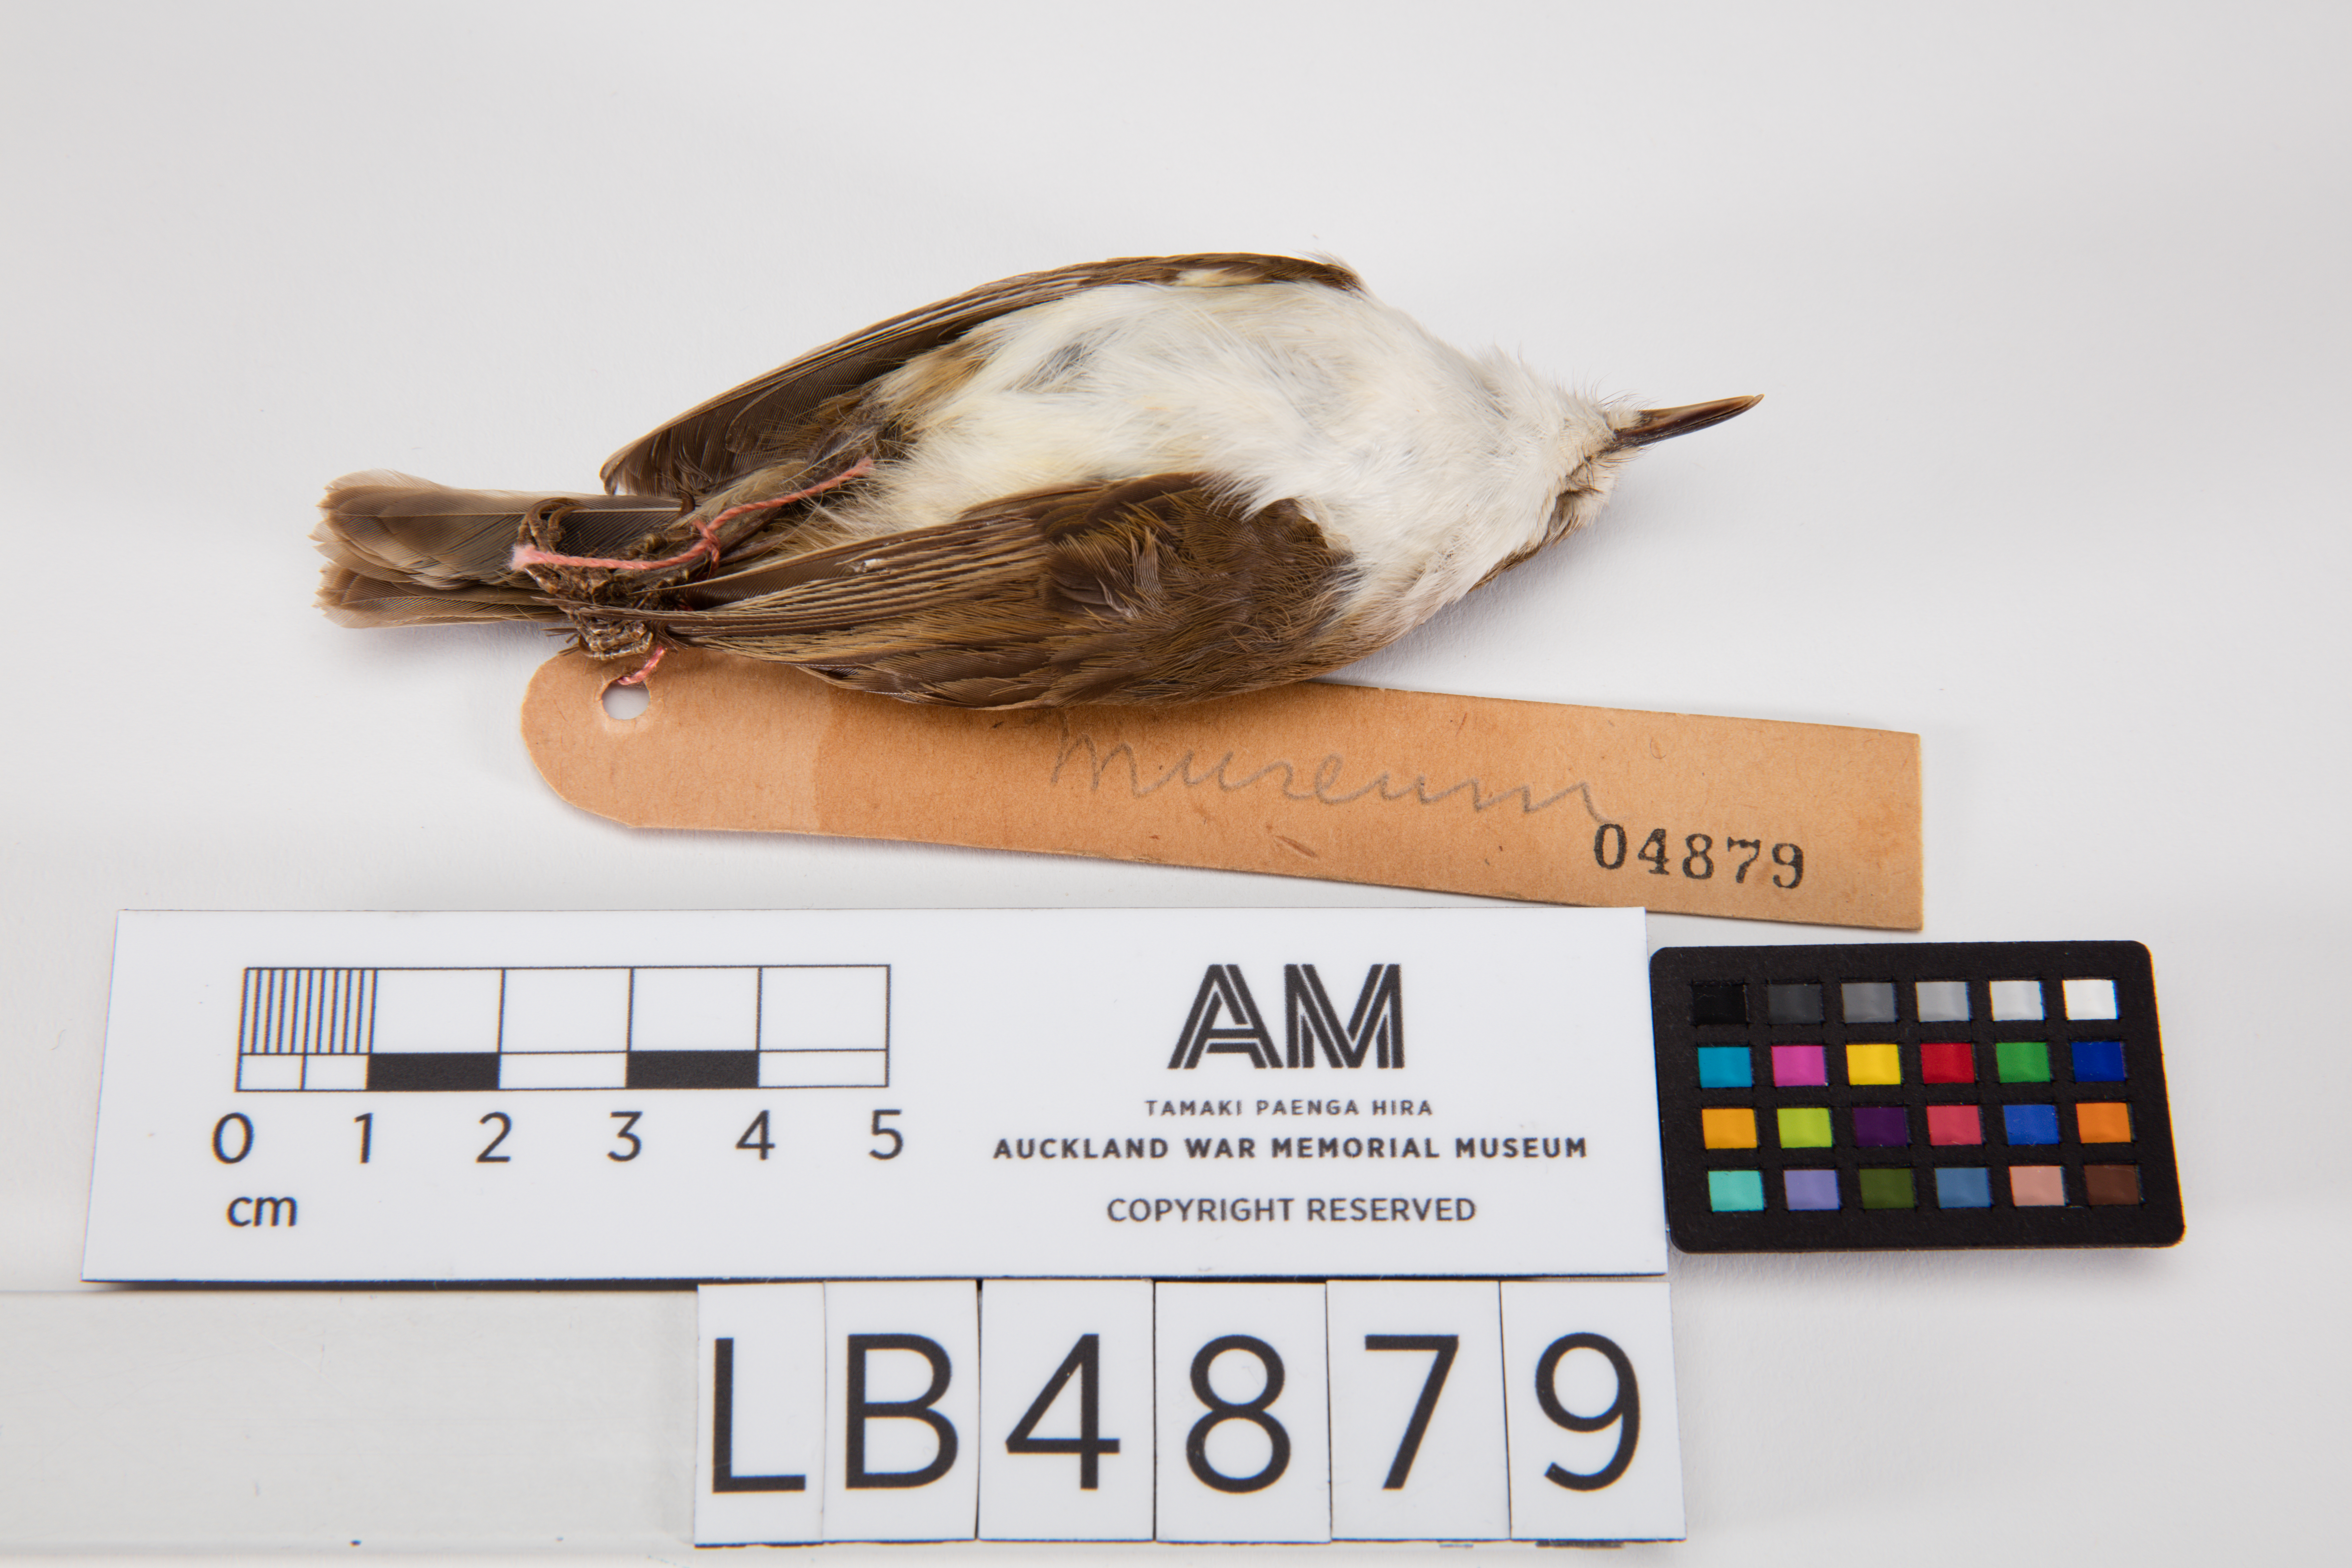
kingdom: Animalia
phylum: Chordata
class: Aves
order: Passeriformes
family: Acanthizidae
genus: Gerygone
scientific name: Gerygone albofrontata
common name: Chatham gerygone
